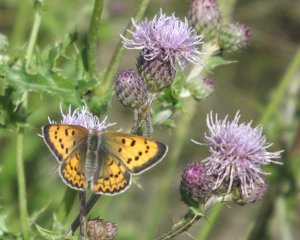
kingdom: Animalia
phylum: Arthropoda
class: Insecta
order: Lepidoptera
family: Sesiidae
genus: Sesia
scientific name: Sesia Lycaena helloides
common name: Purplish Copper
